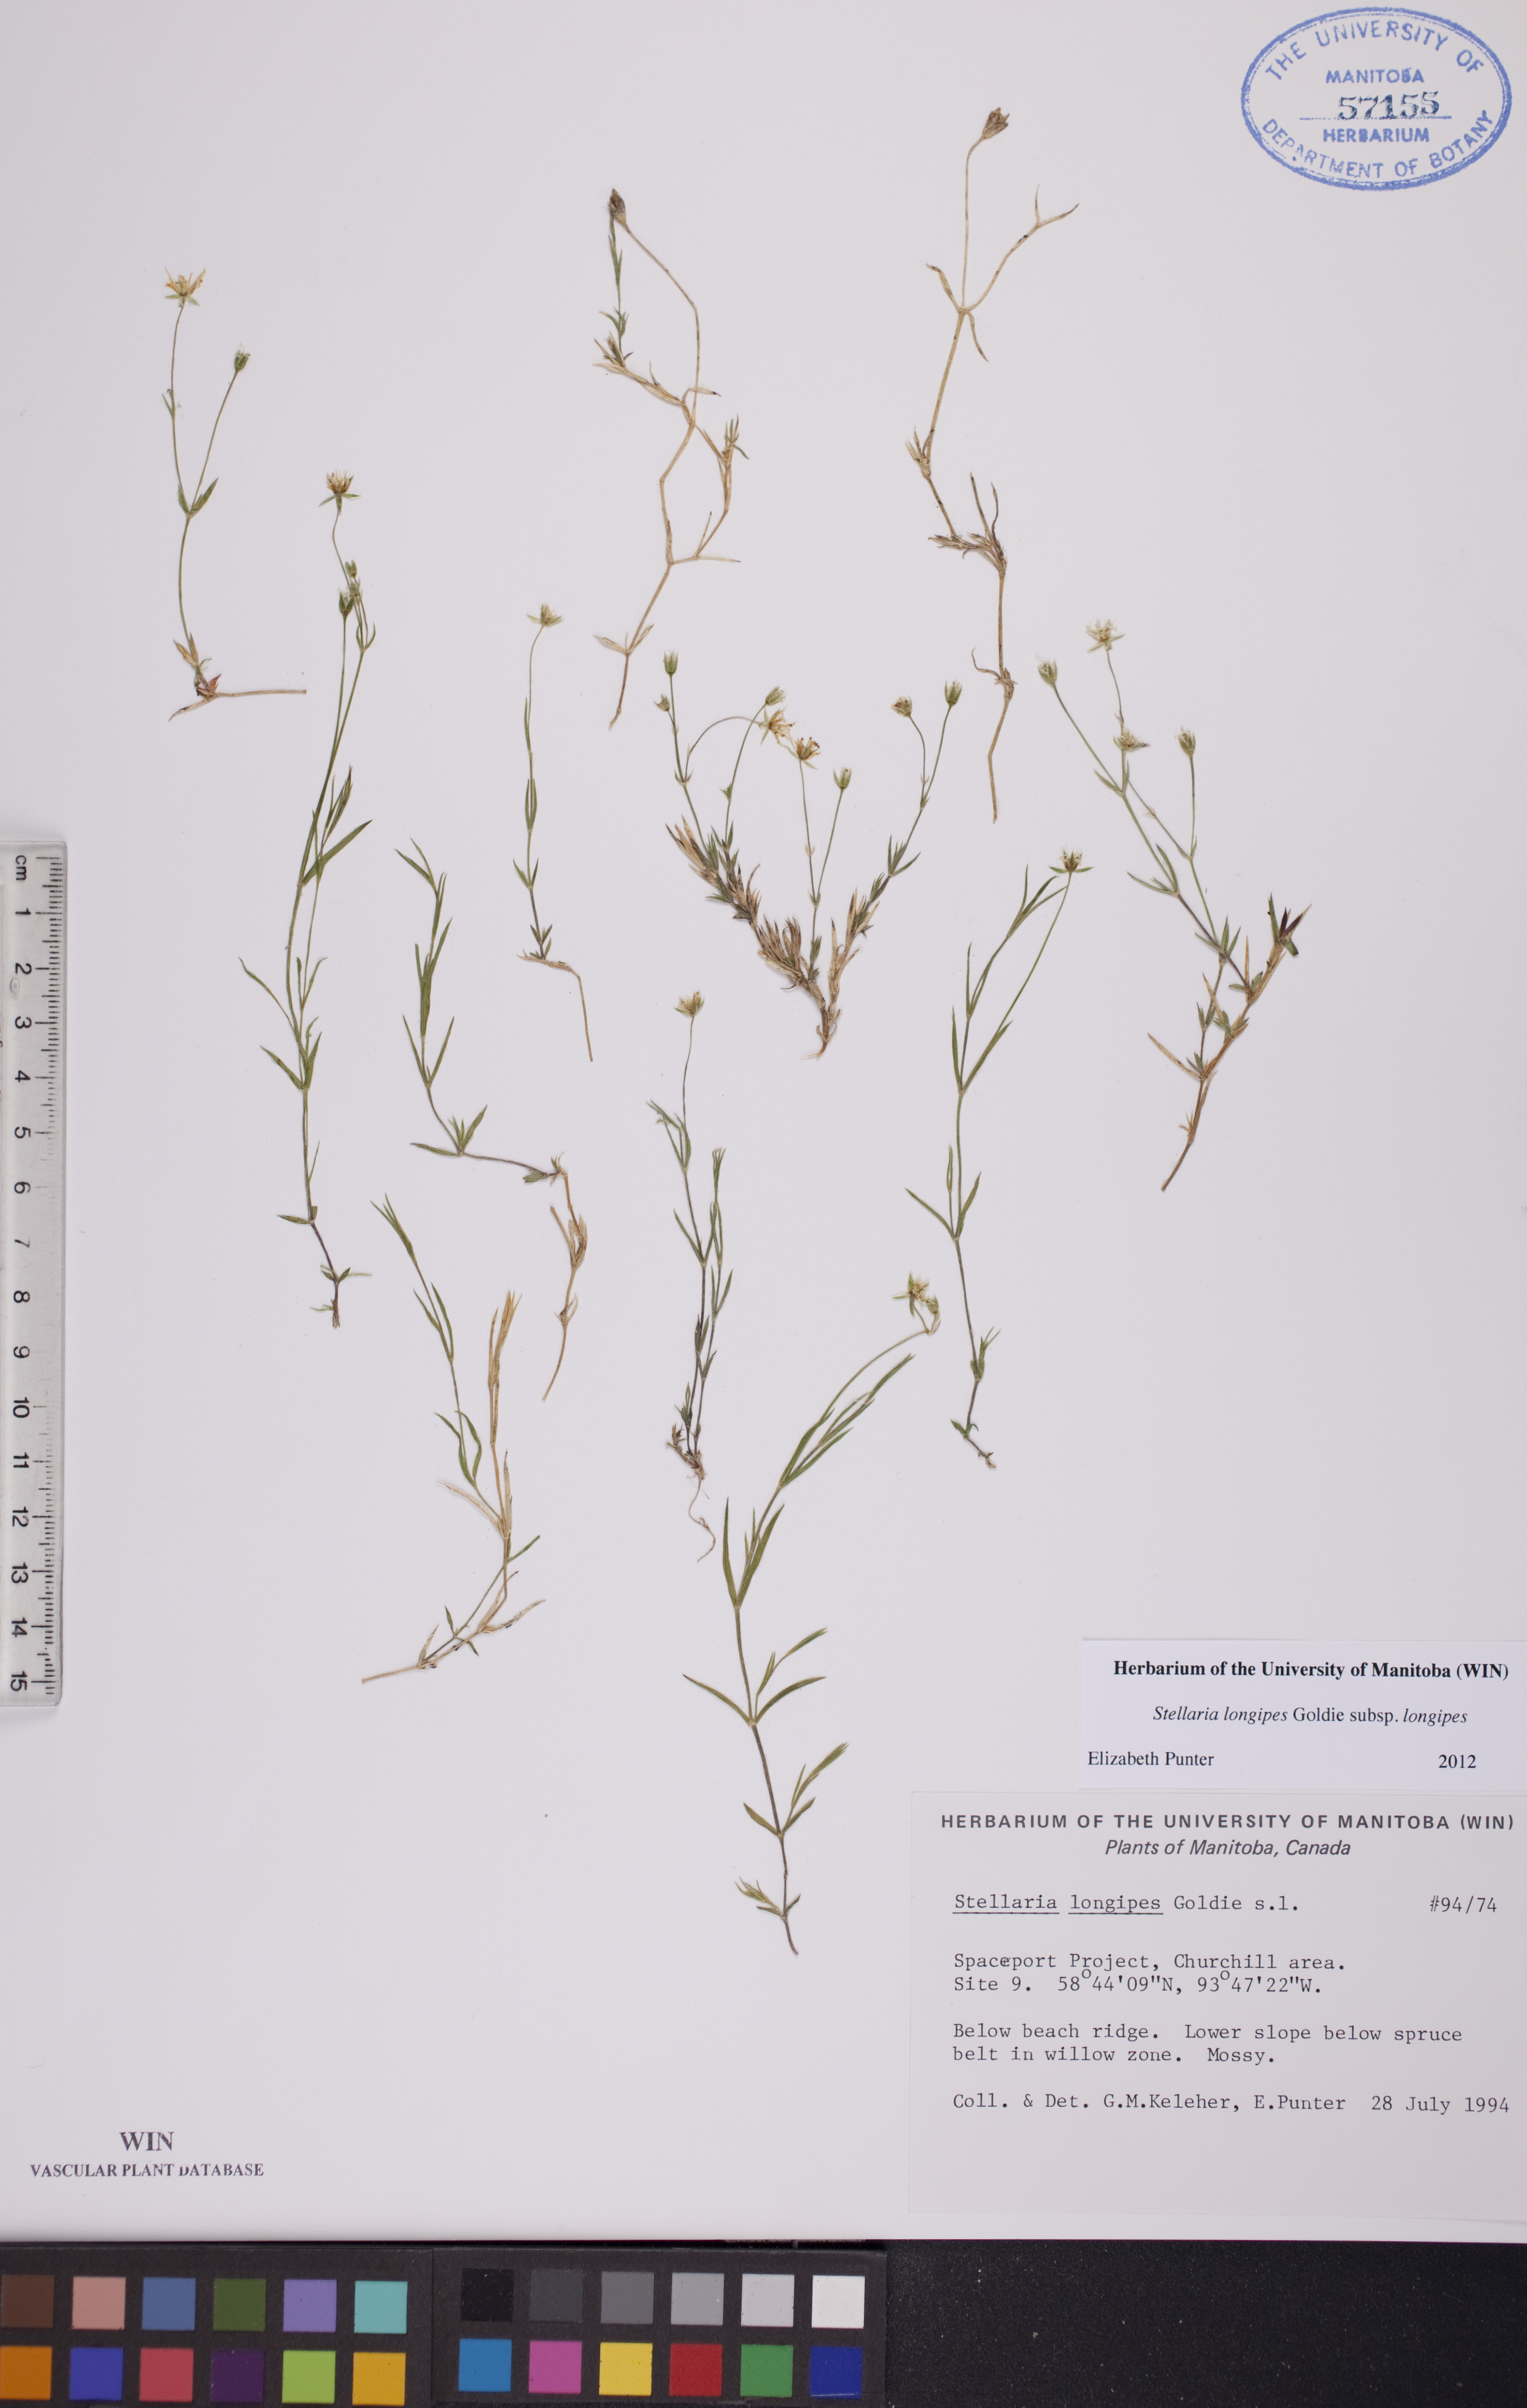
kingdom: Plantae
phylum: Tracheophyta
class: Magnoliopsida
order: Caryophyllales
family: Caryophyllaceae
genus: Stellaria
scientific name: Stellaria longipes
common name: Goldie's starwort
